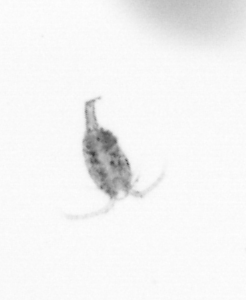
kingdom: Animalia
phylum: Arthropoda
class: Copepoda
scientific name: Copepoda
